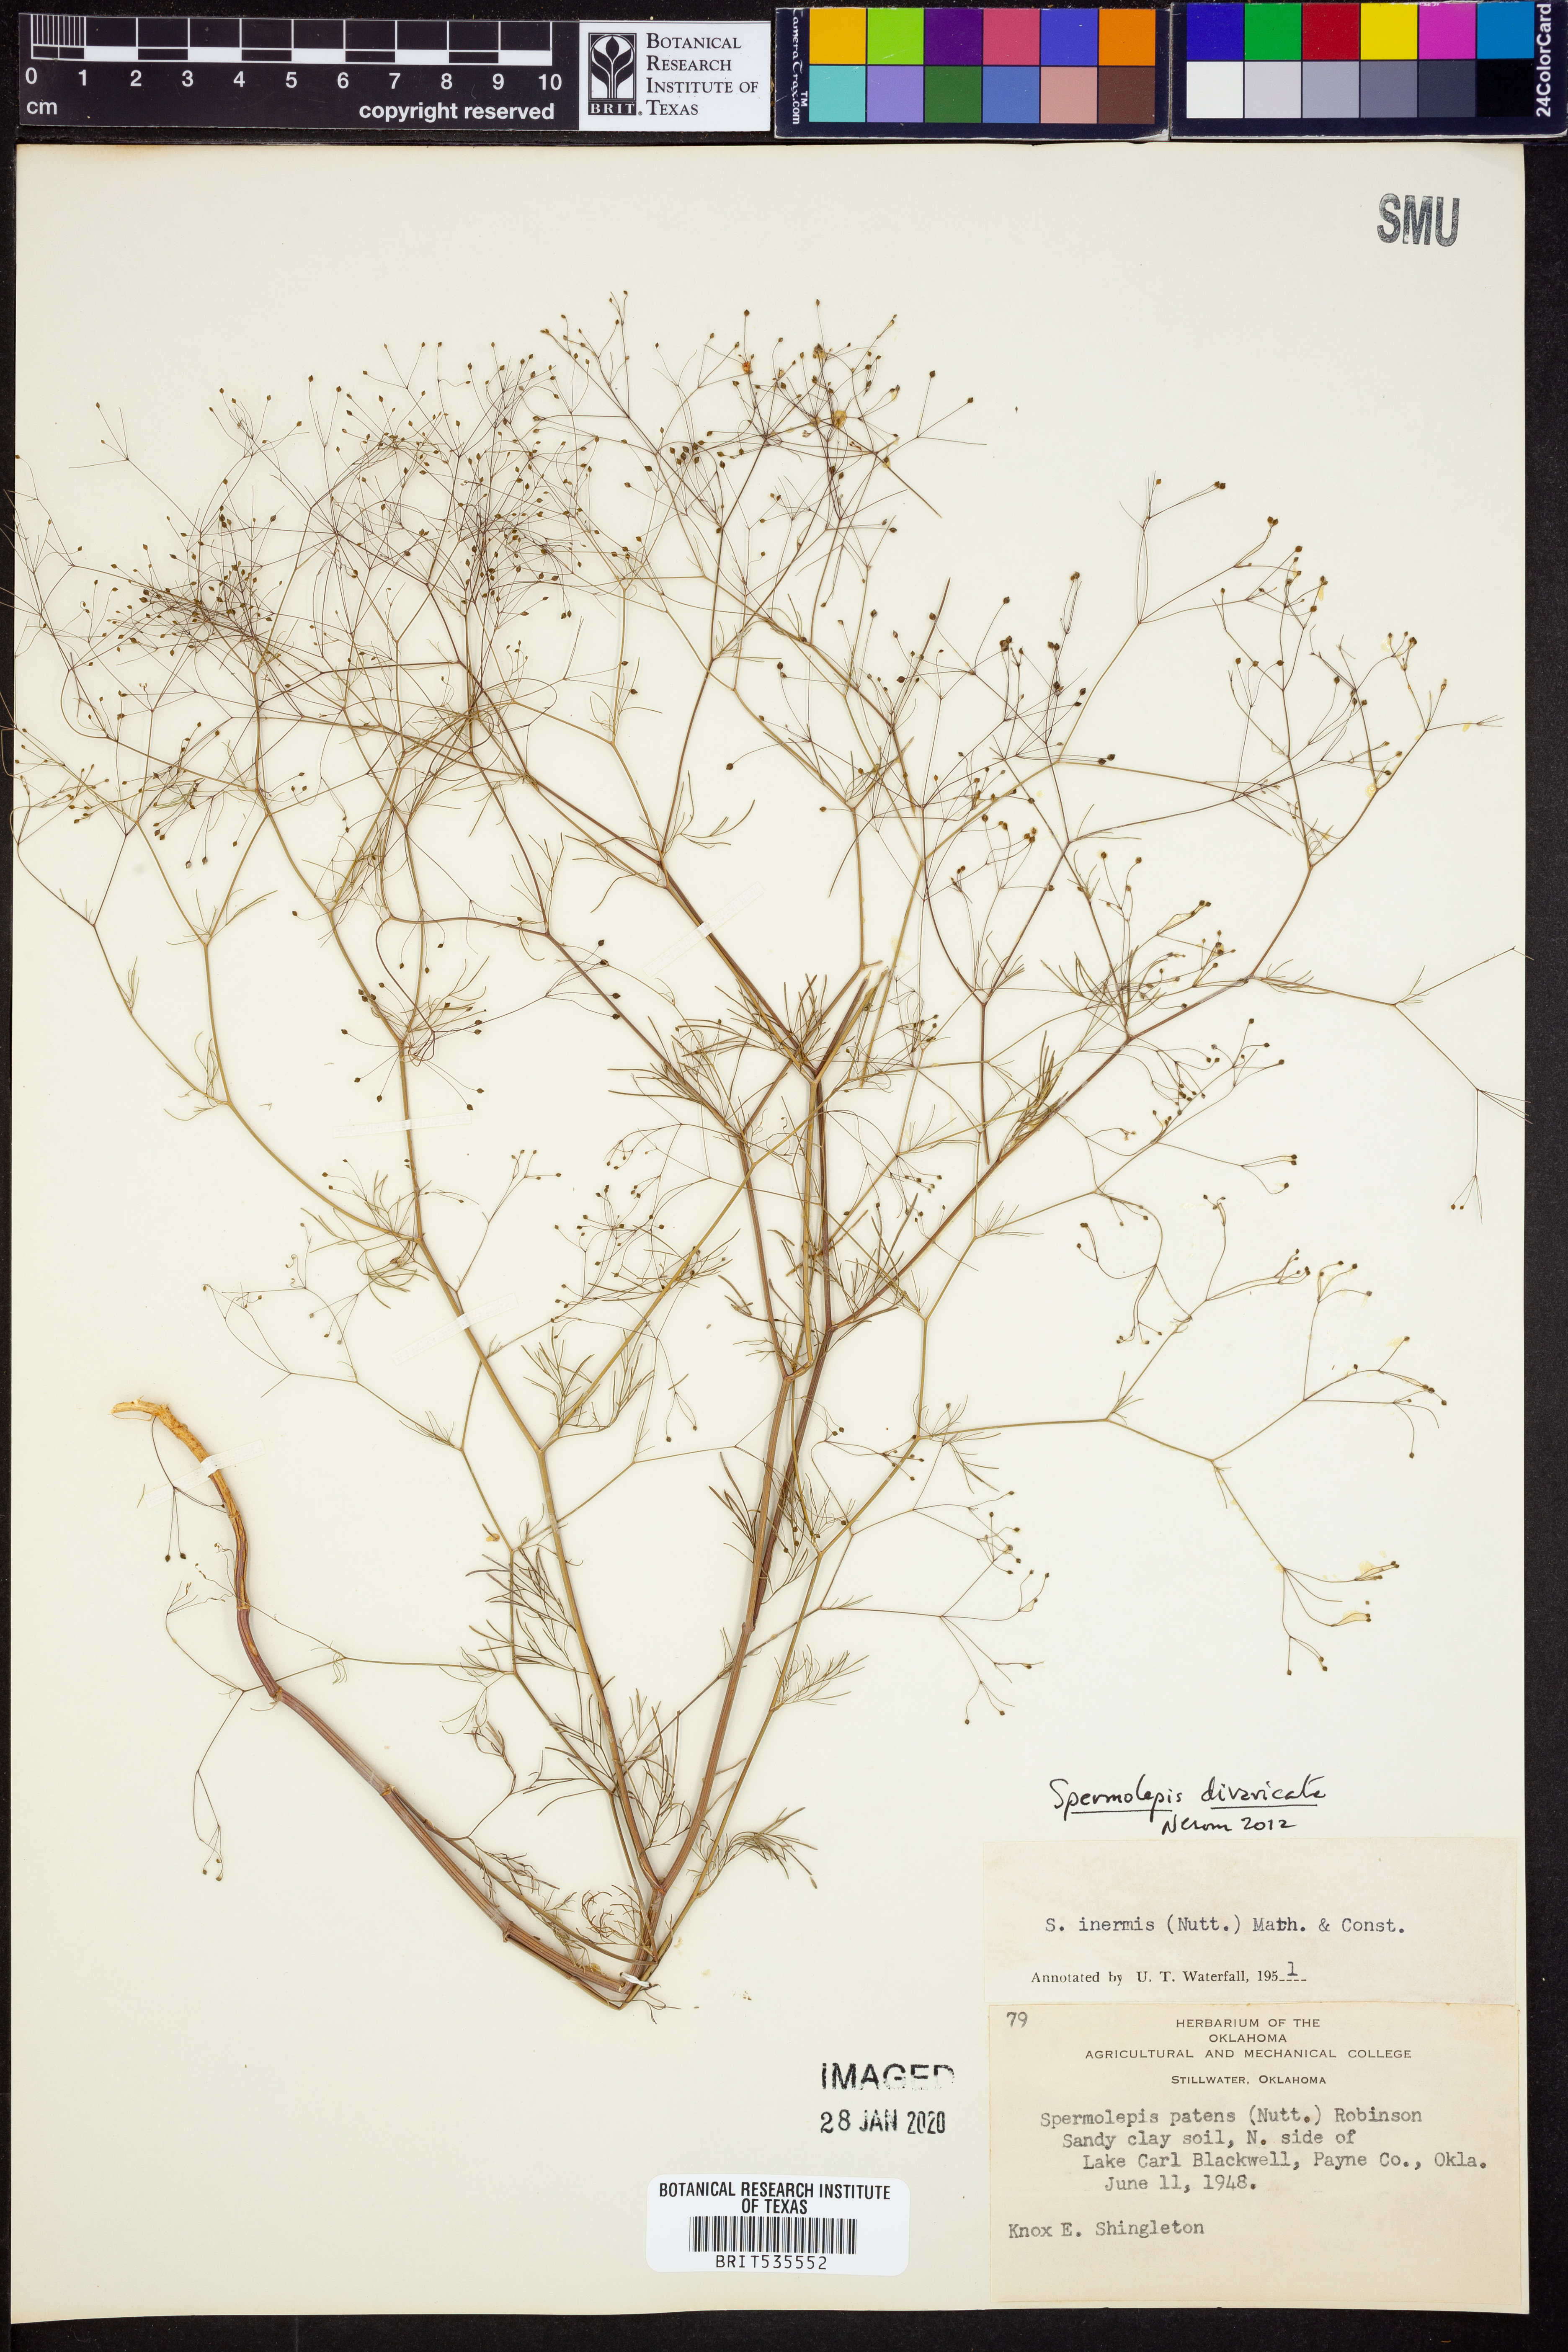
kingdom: Plantae
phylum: Tracheophyta
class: Magnoliopsida
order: Apiales
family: Apiaceae
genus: Spermolepis
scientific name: Spermolepis divaricata
